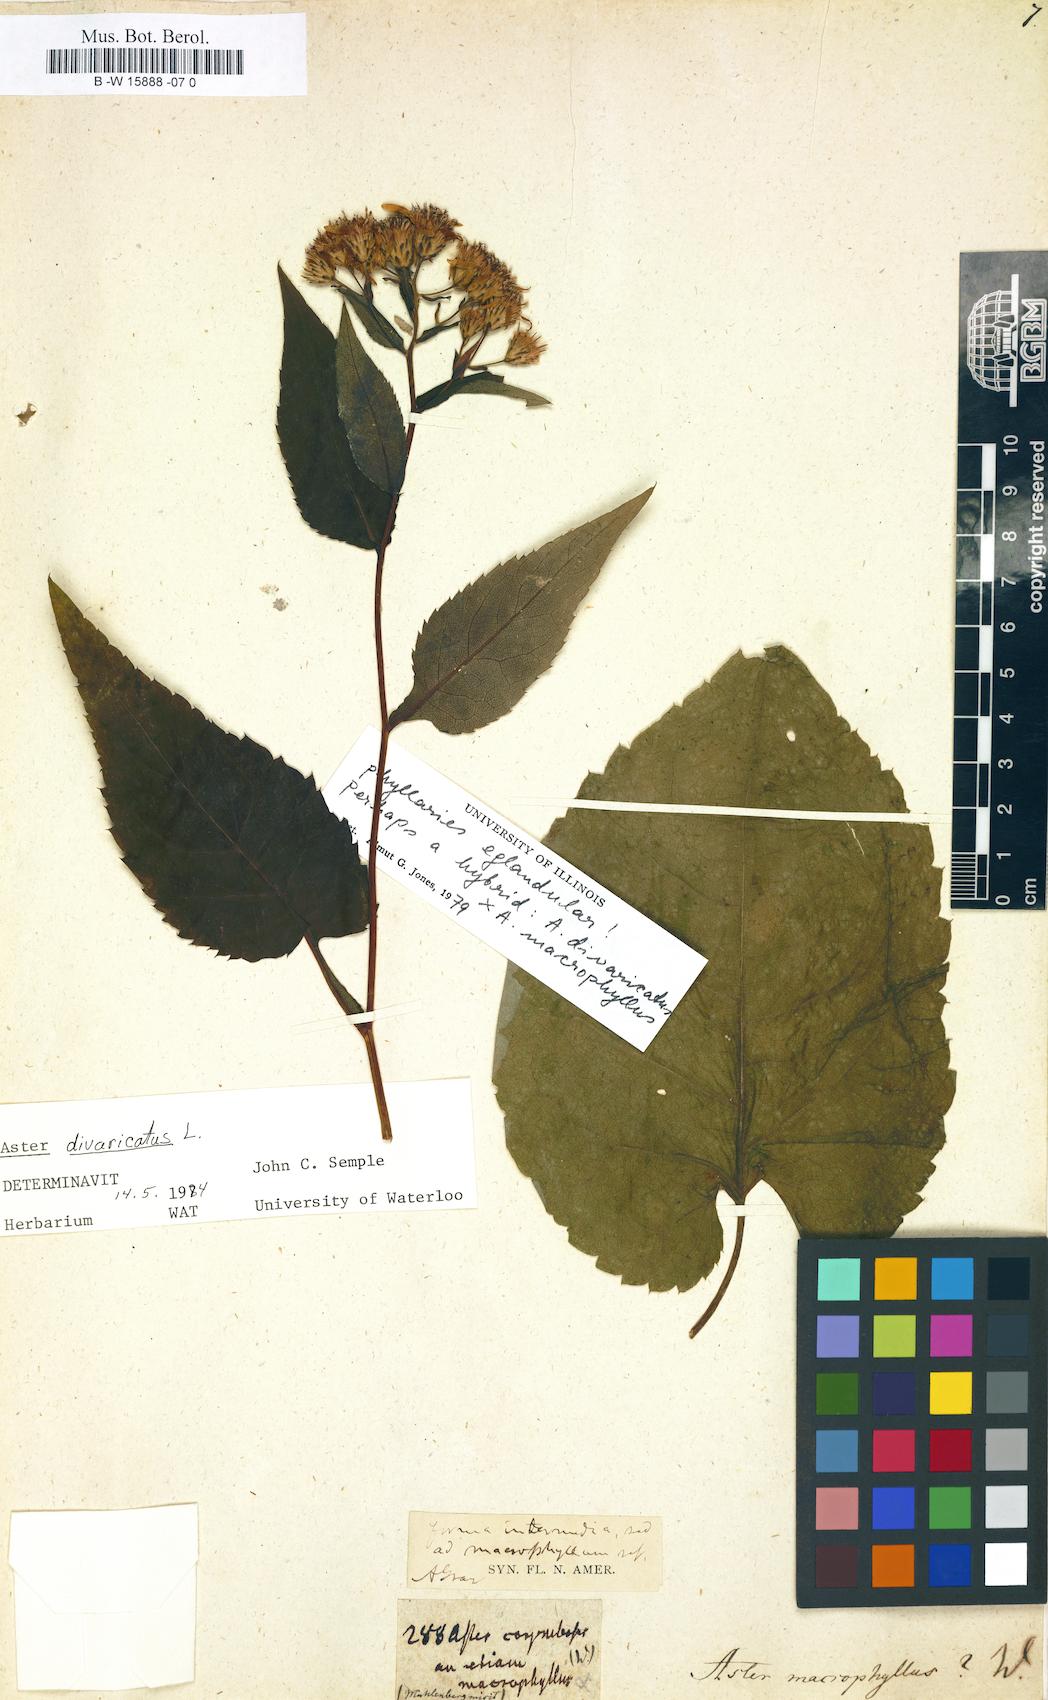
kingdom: Plantae
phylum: Tracheophyta
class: Magnoliopsida
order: Asterales
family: Asteraceae
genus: Eurybia
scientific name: Eurybia macrophylla
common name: Big-leaved aster
